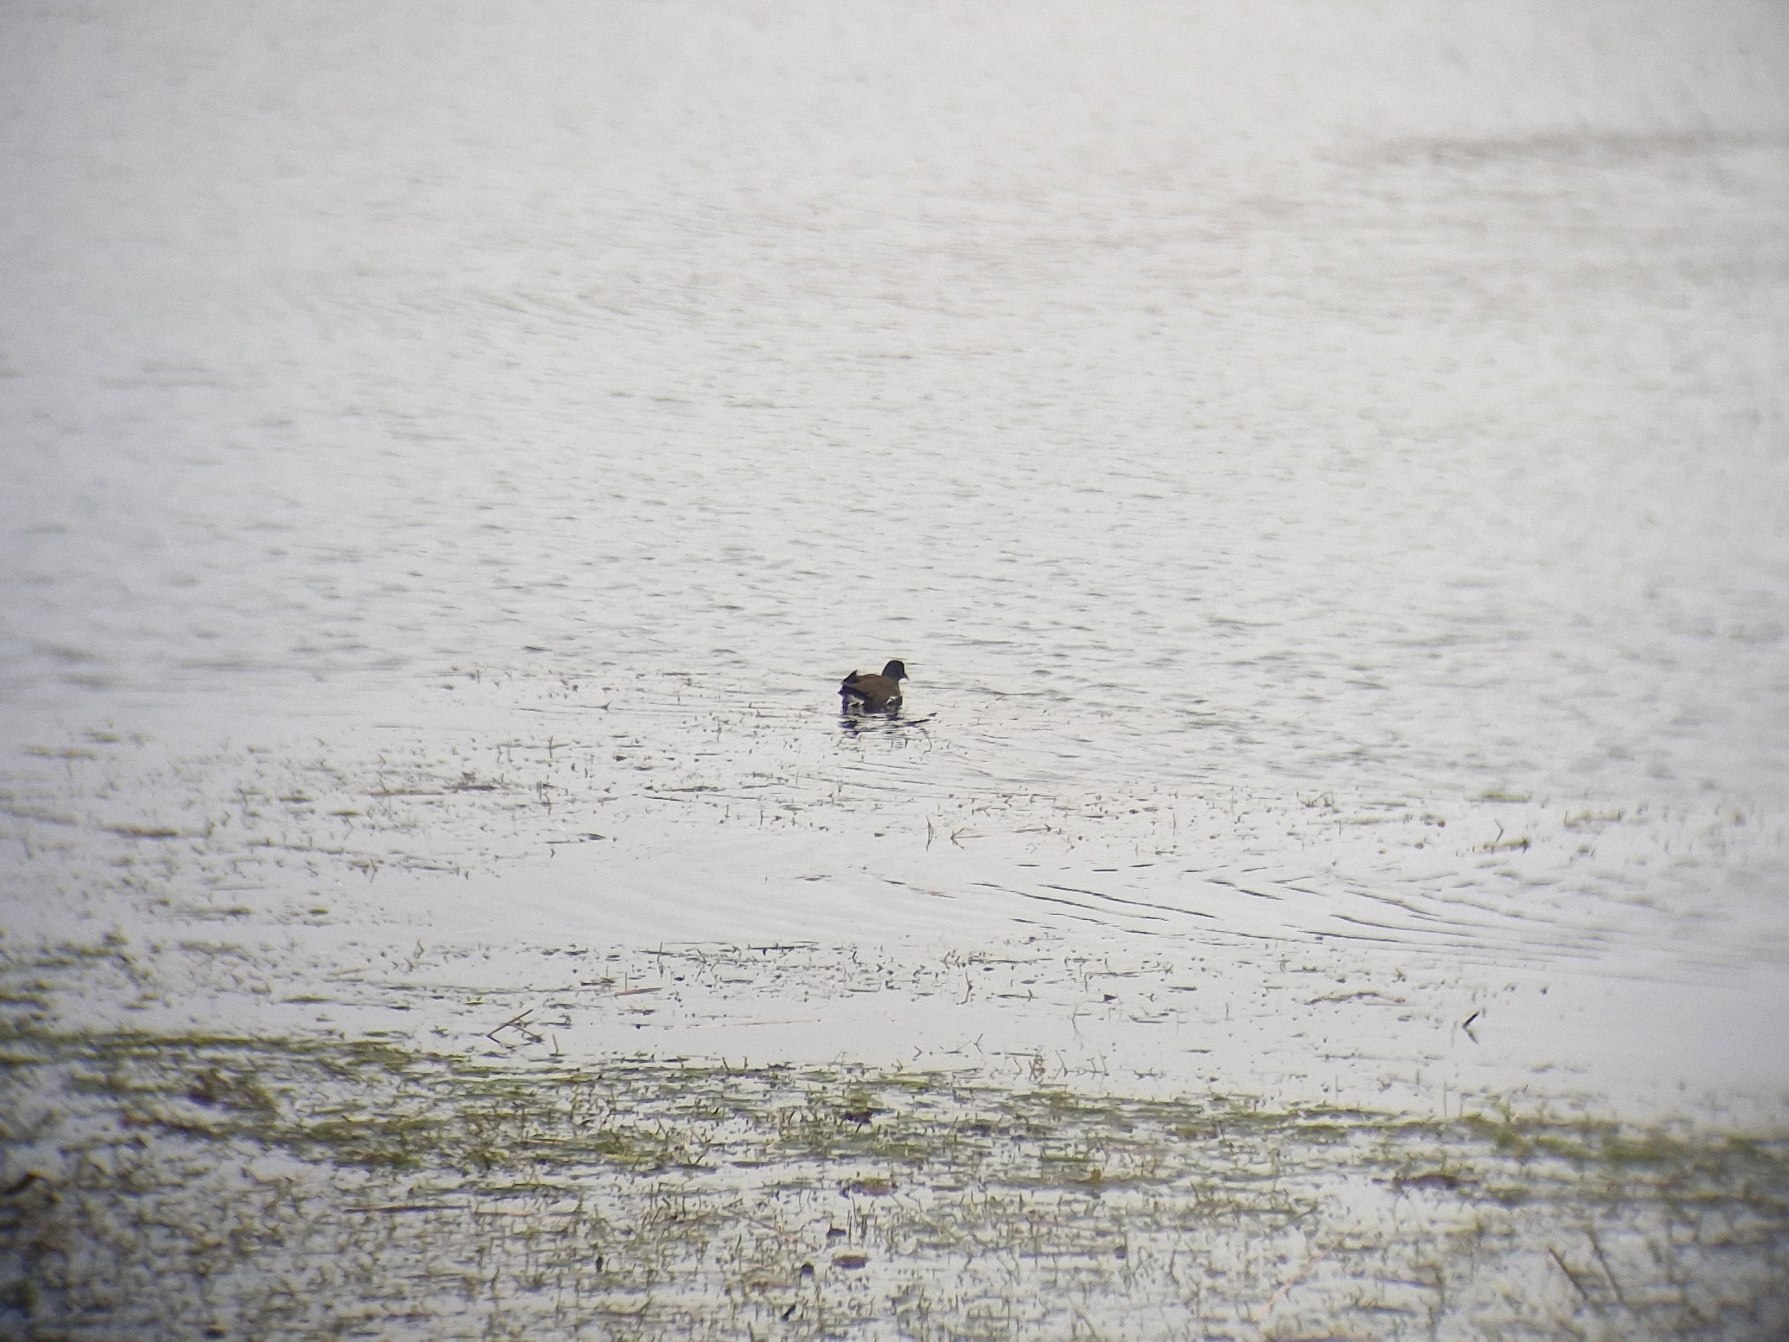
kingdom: Animalia
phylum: Chordata
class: Aves
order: Gruiformes
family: Rallidae
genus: Gallinula
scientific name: Gallinula chloropus
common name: Grønbenet rørhøne
